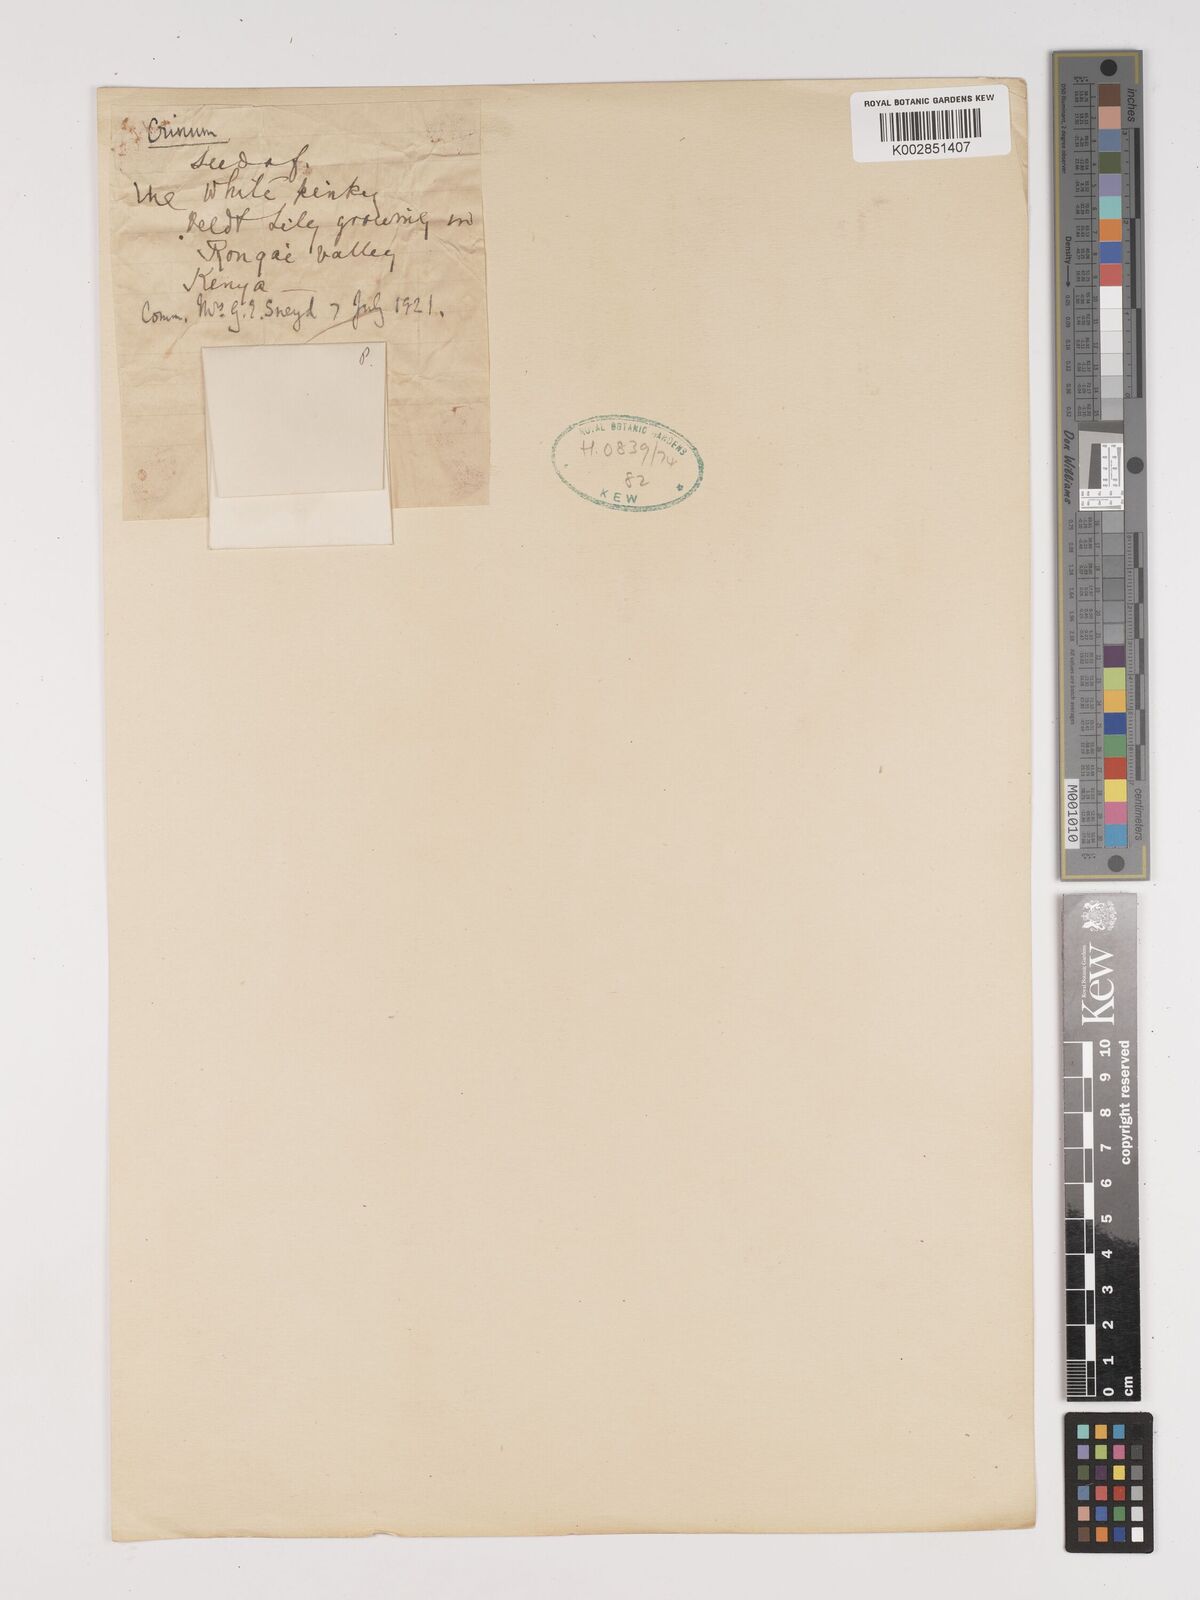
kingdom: Plantae
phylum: Tracheophyta
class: Liliopsida
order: Asparagales
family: Amaryllidaceae
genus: Crinum
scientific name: Crinum
